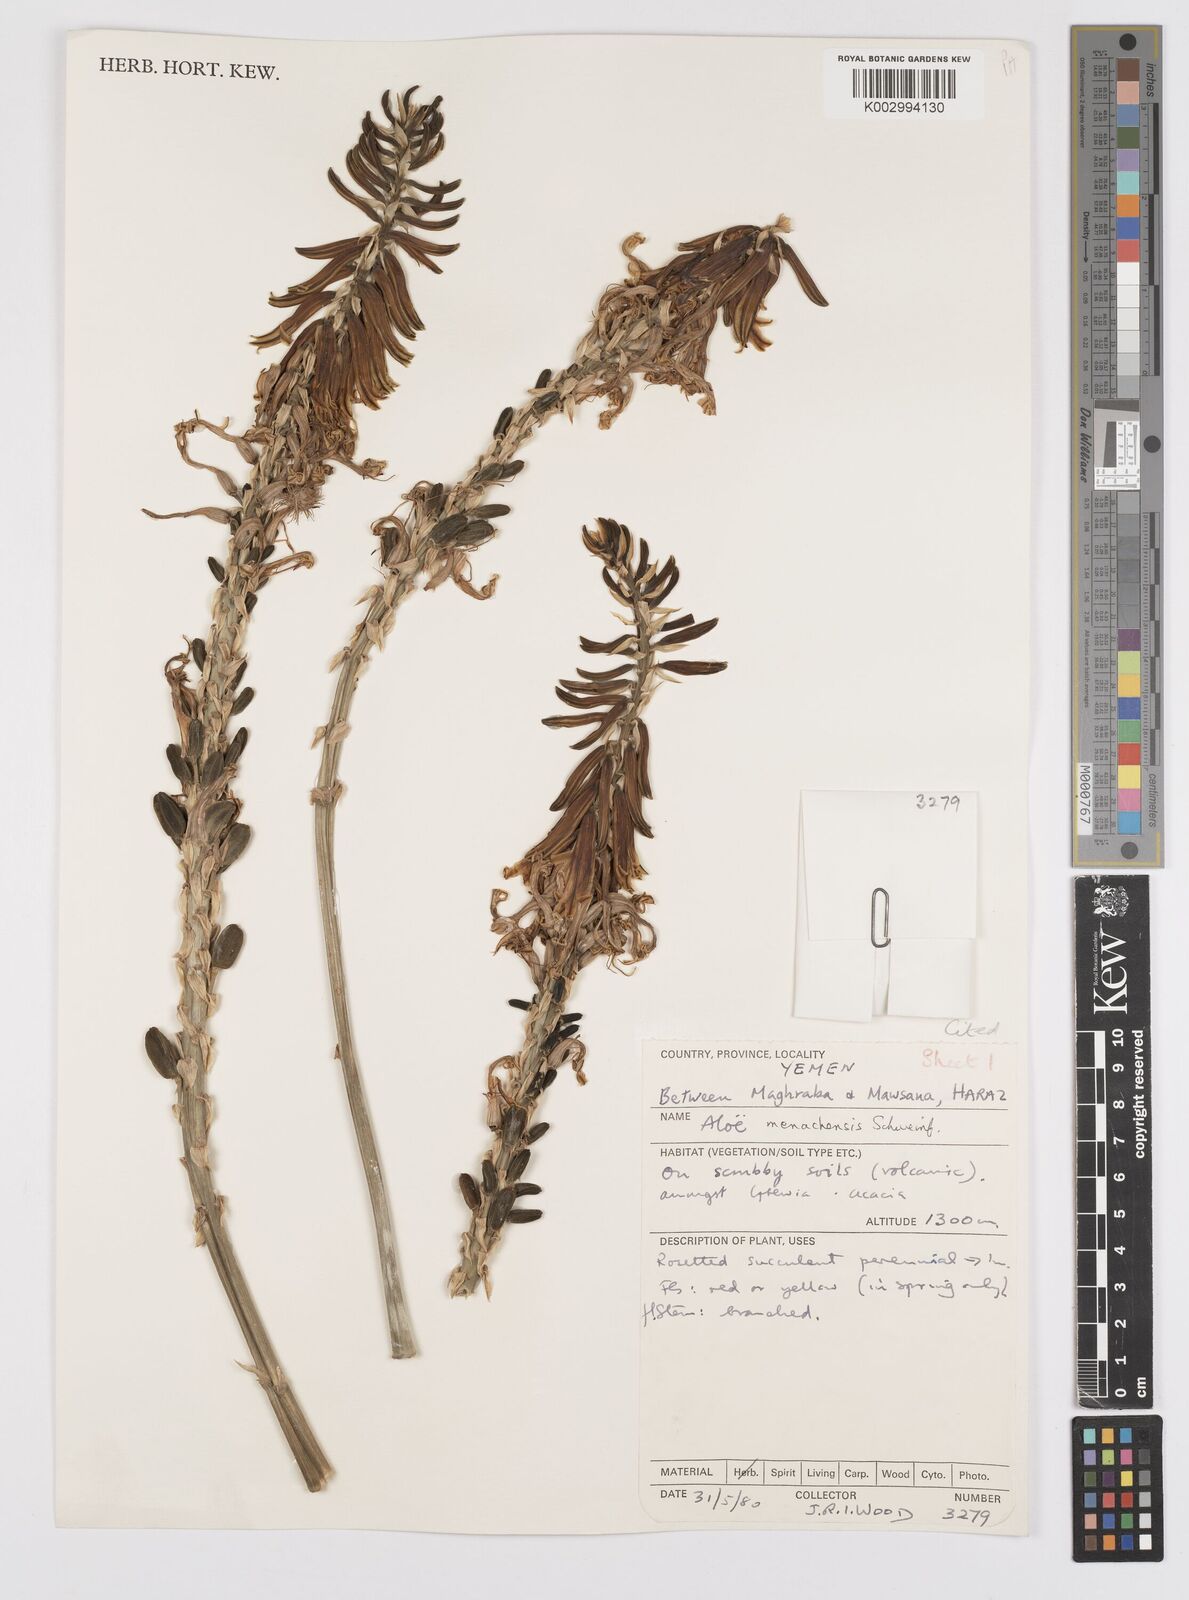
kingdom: Plantae
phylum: Tracheophyta
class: Liliopsida
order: Asparagales
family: Asphodelaceae
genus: Aloe
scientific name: Aloe
